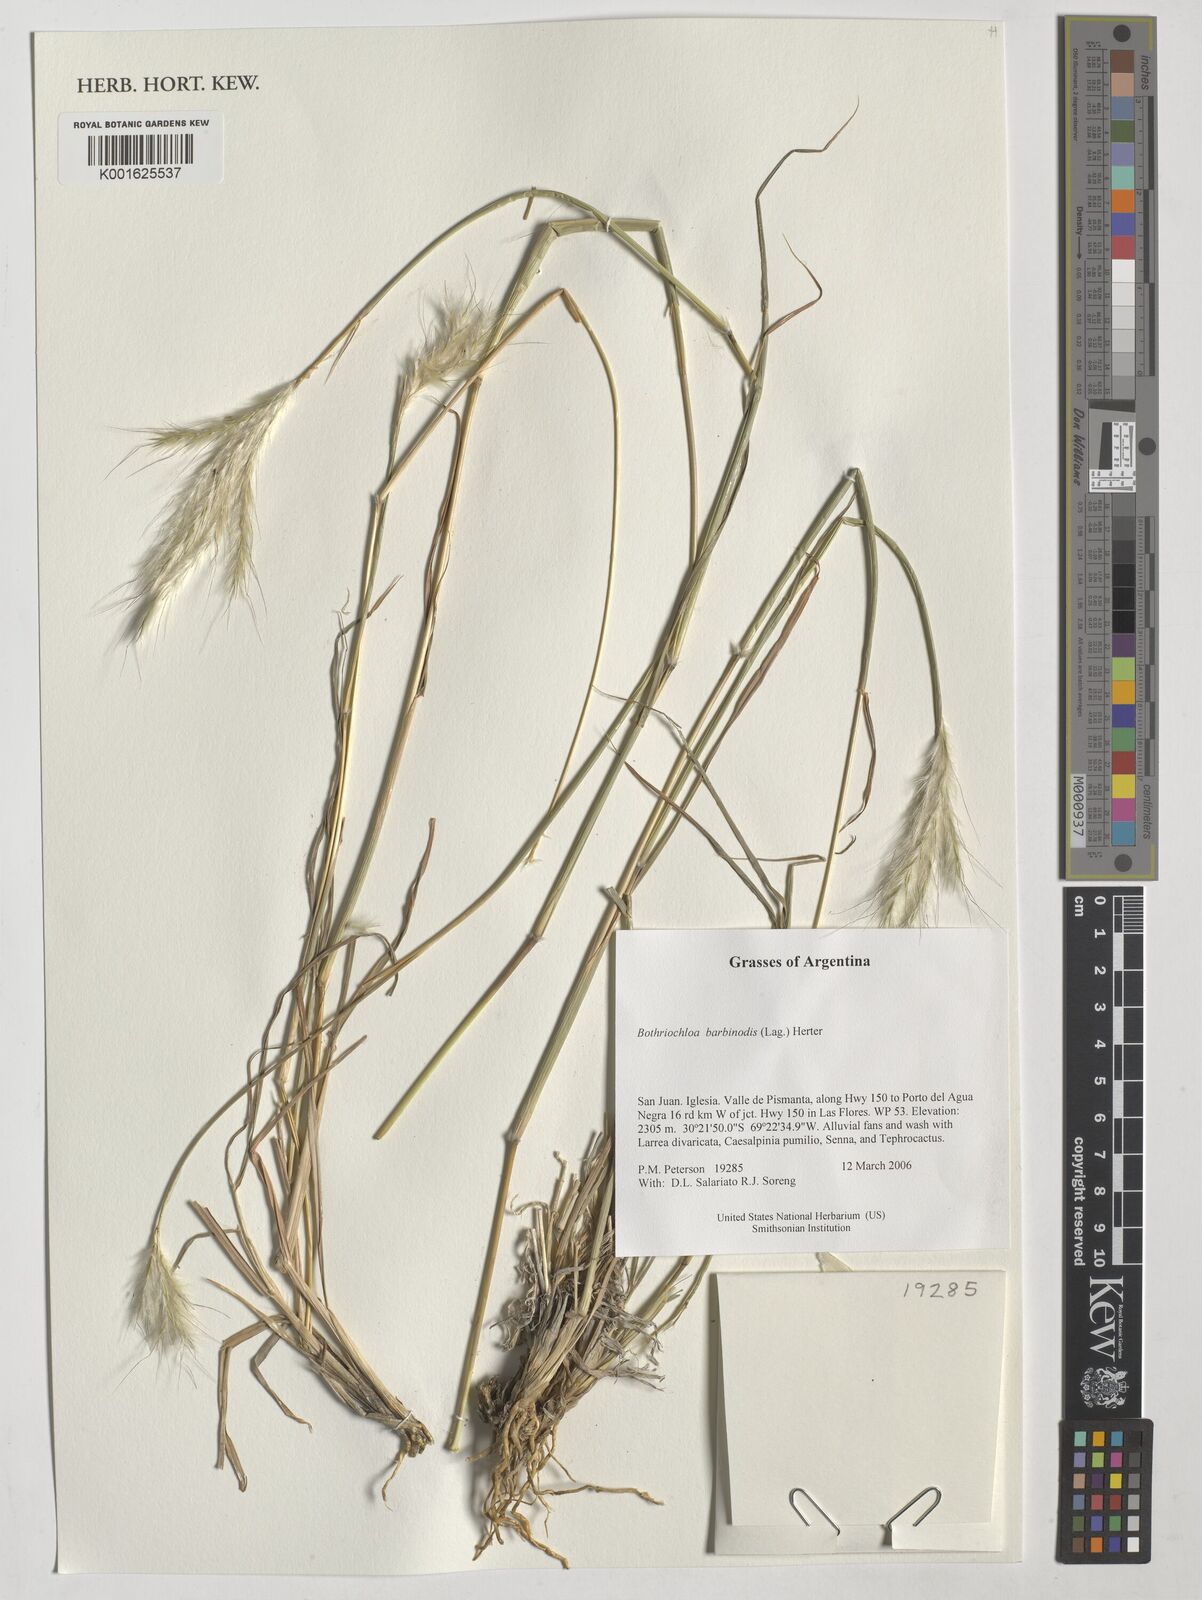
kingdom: Plantae
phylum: Tracheophyta
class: Liliopsida
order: Poales
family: Poaceae
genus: Bothriochloa
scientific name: Bothriochloa barbinodis
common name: Cane bluestem
